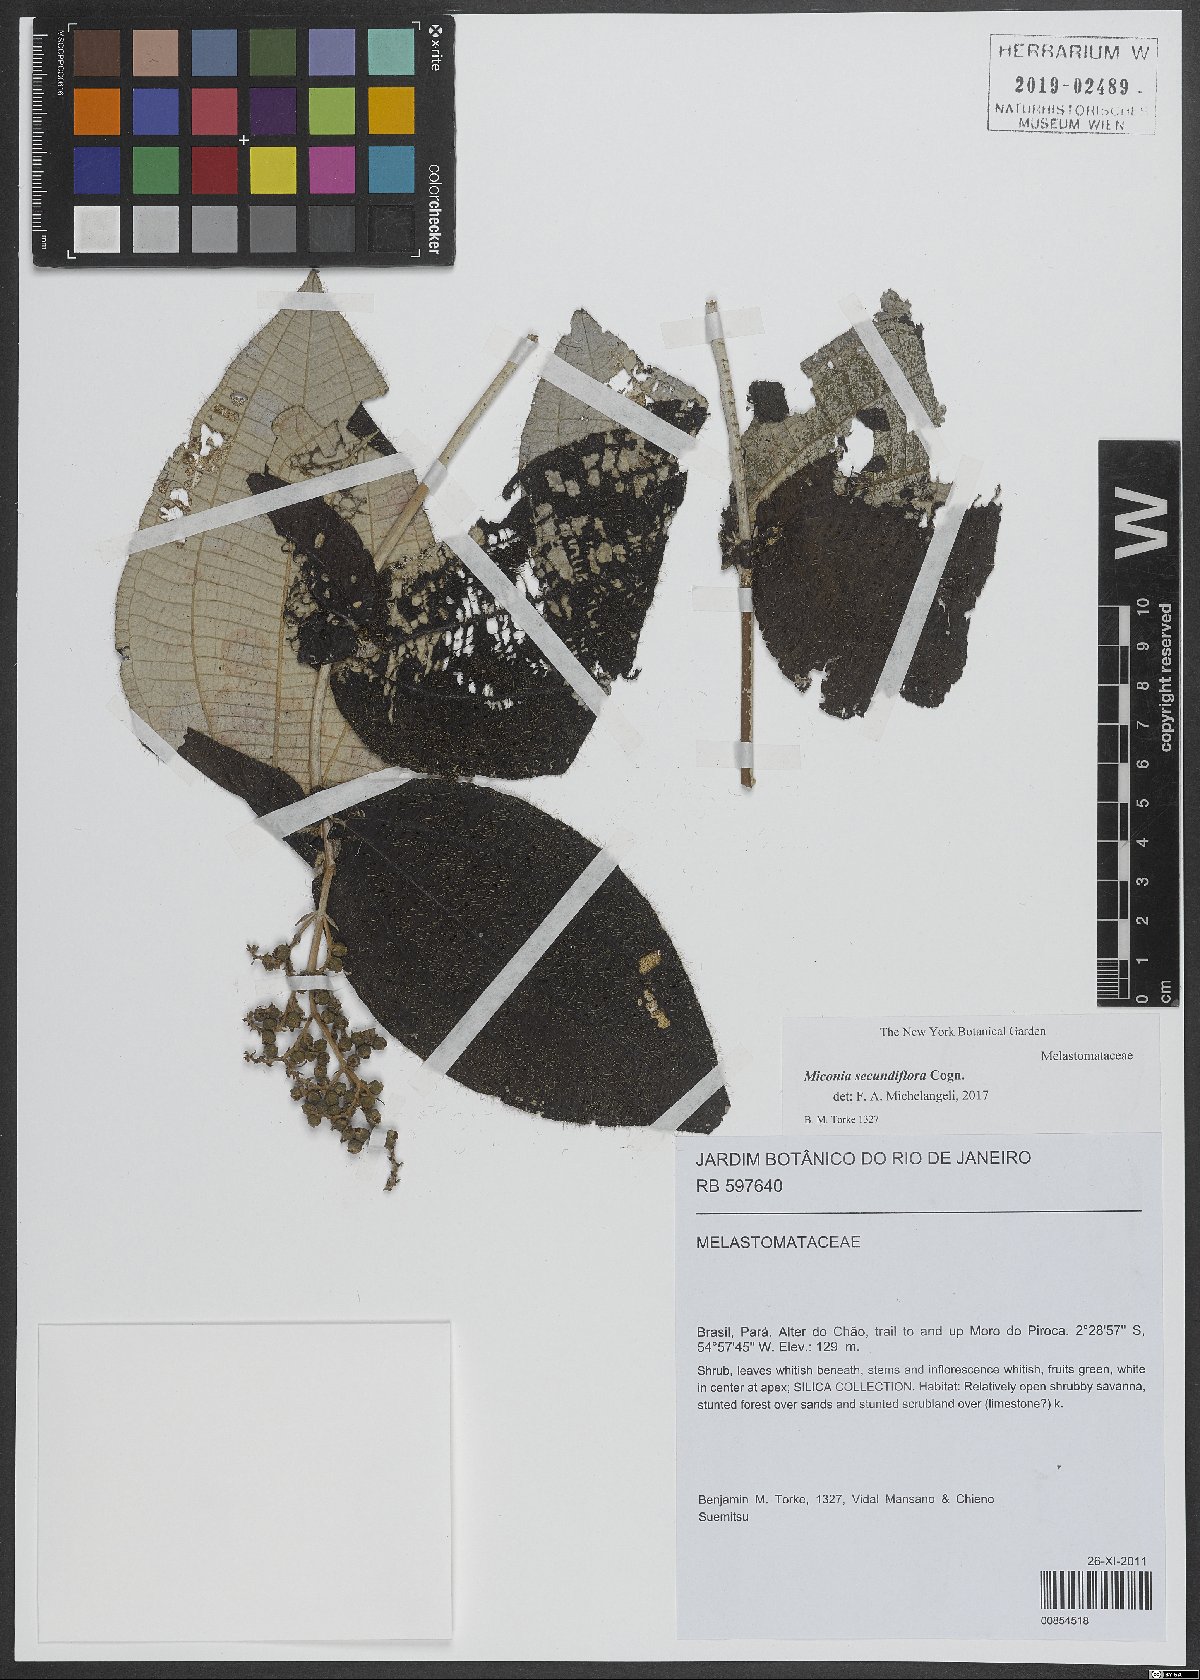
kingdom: Plantae
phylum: Tracheophyta
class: Magnoliopsida
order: Myrtales
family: Melastomataceae
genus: Miconia
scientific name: Miconia secundiflora
